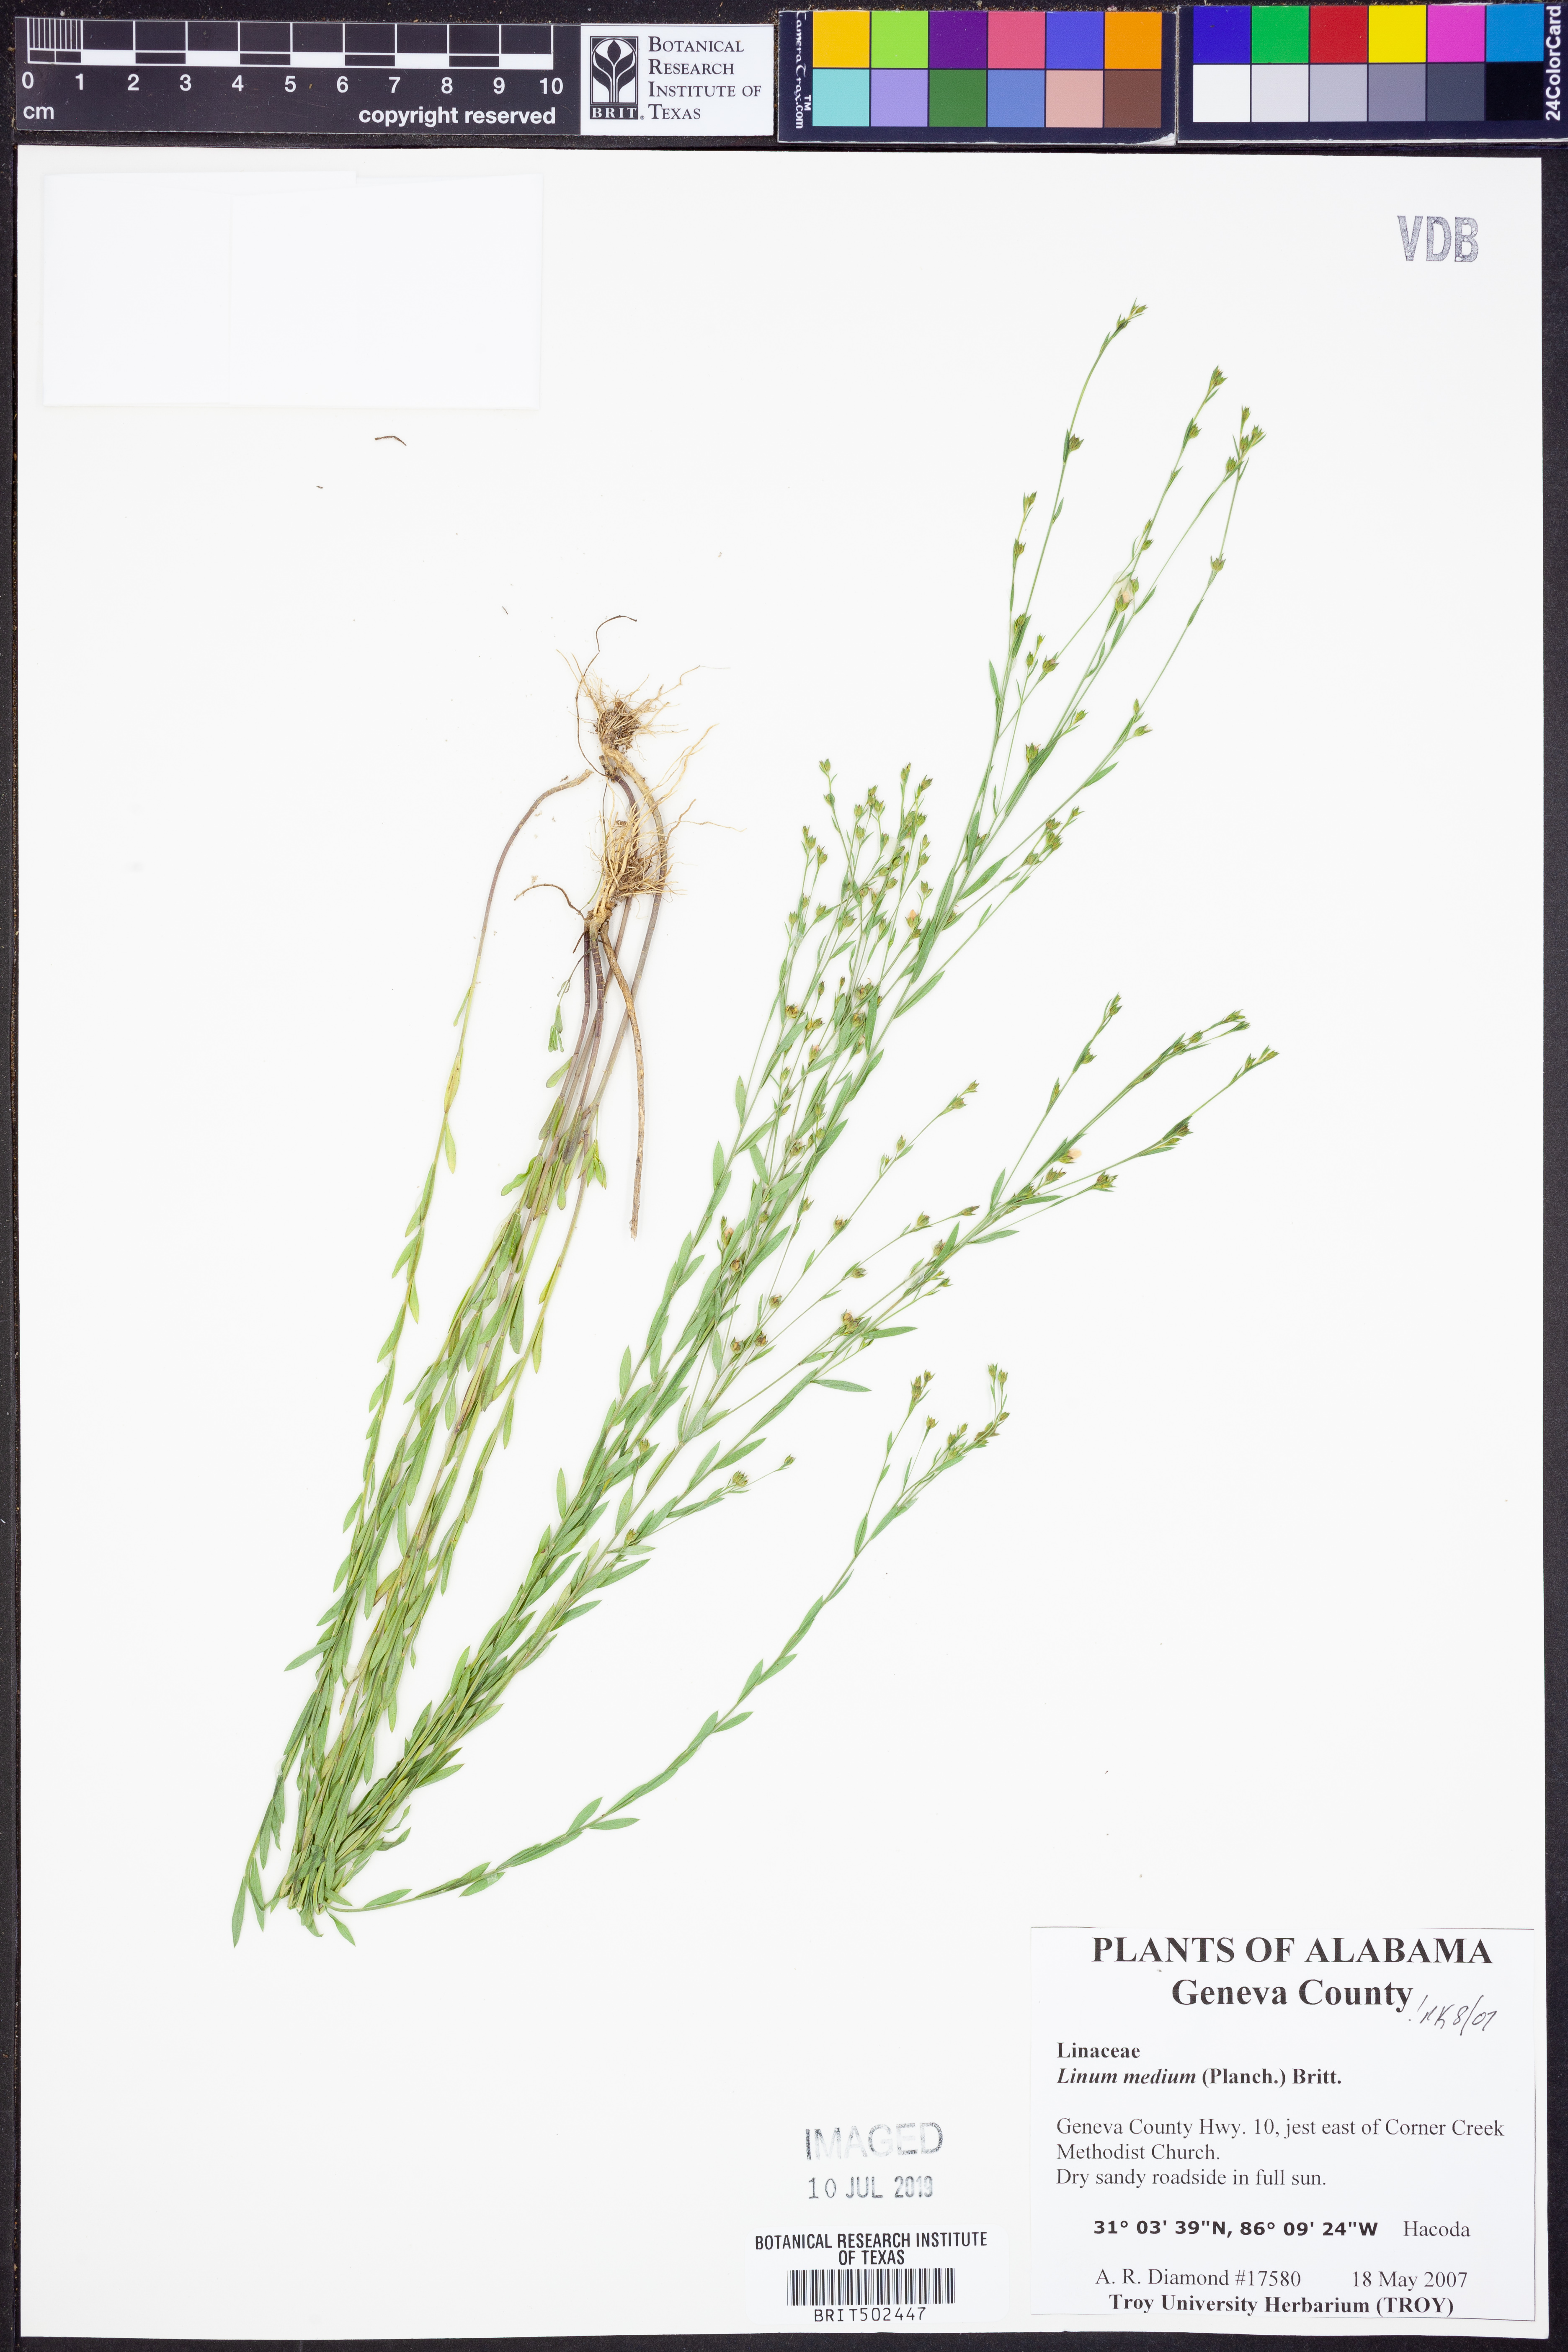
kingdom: Plantae
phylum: Tracheophyta
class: Magnoliopsida
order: Malpighiales
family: Linaceae
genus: Linum
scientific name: Linum medium
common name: Stiff yellow flax
